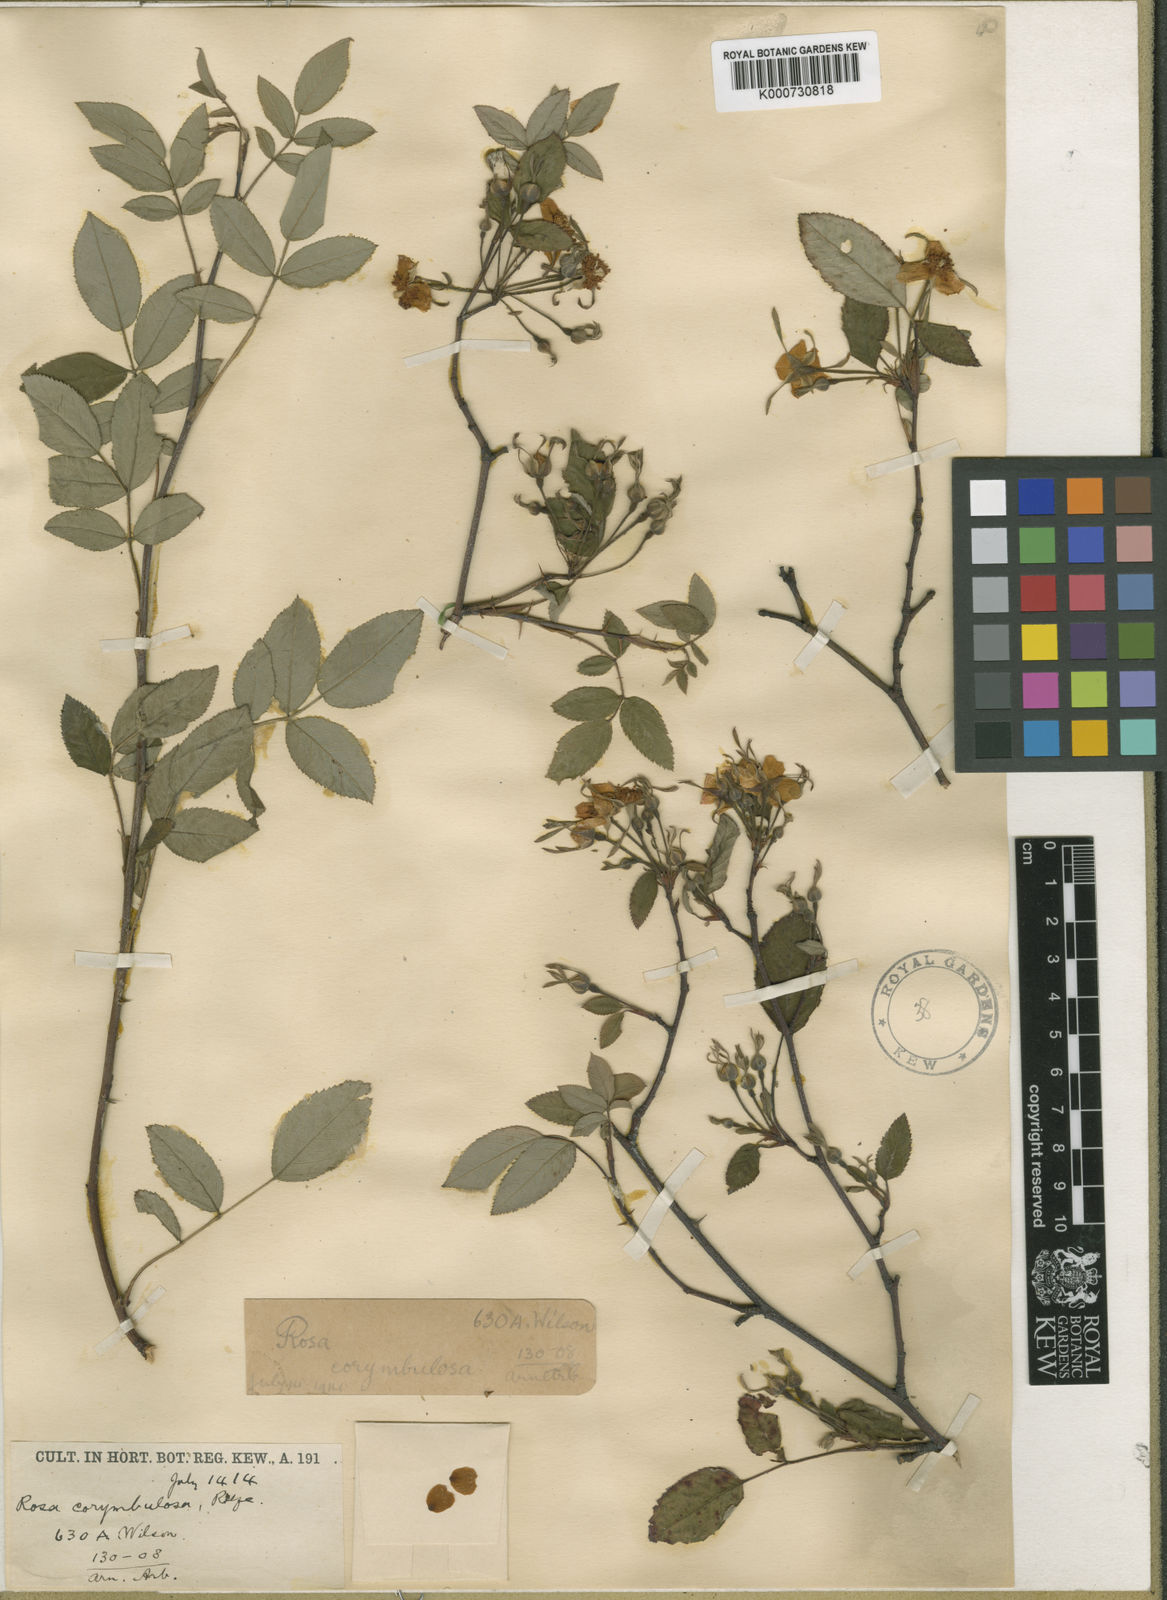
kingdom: Plantae
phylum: Tracheophyta
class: Magnoliopsida
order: Rosales
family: Rosaceae
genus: Rosa
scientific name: Rosa corymbulosa
